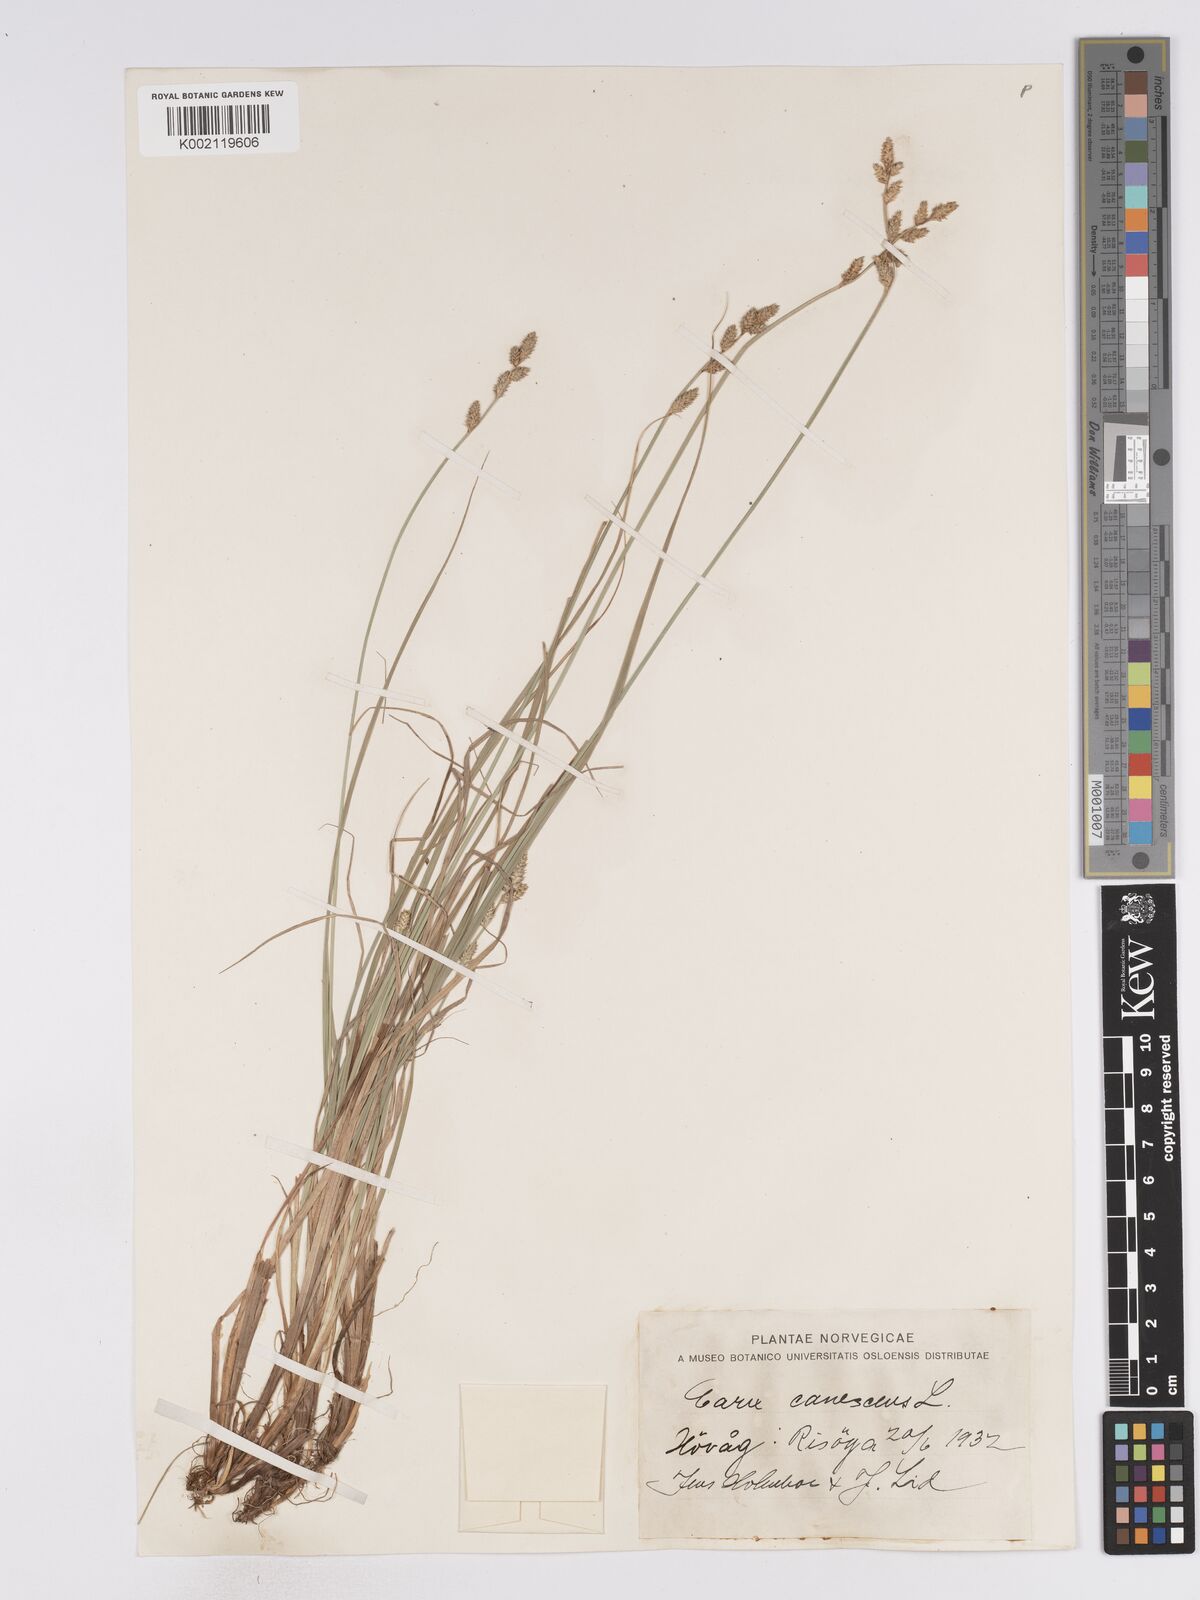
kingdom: Plantae
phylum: Tracheophyta
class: Liliopsida
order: Poales
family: Cyperaceae
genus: Carex
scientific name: Carex curta
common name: White sedge
